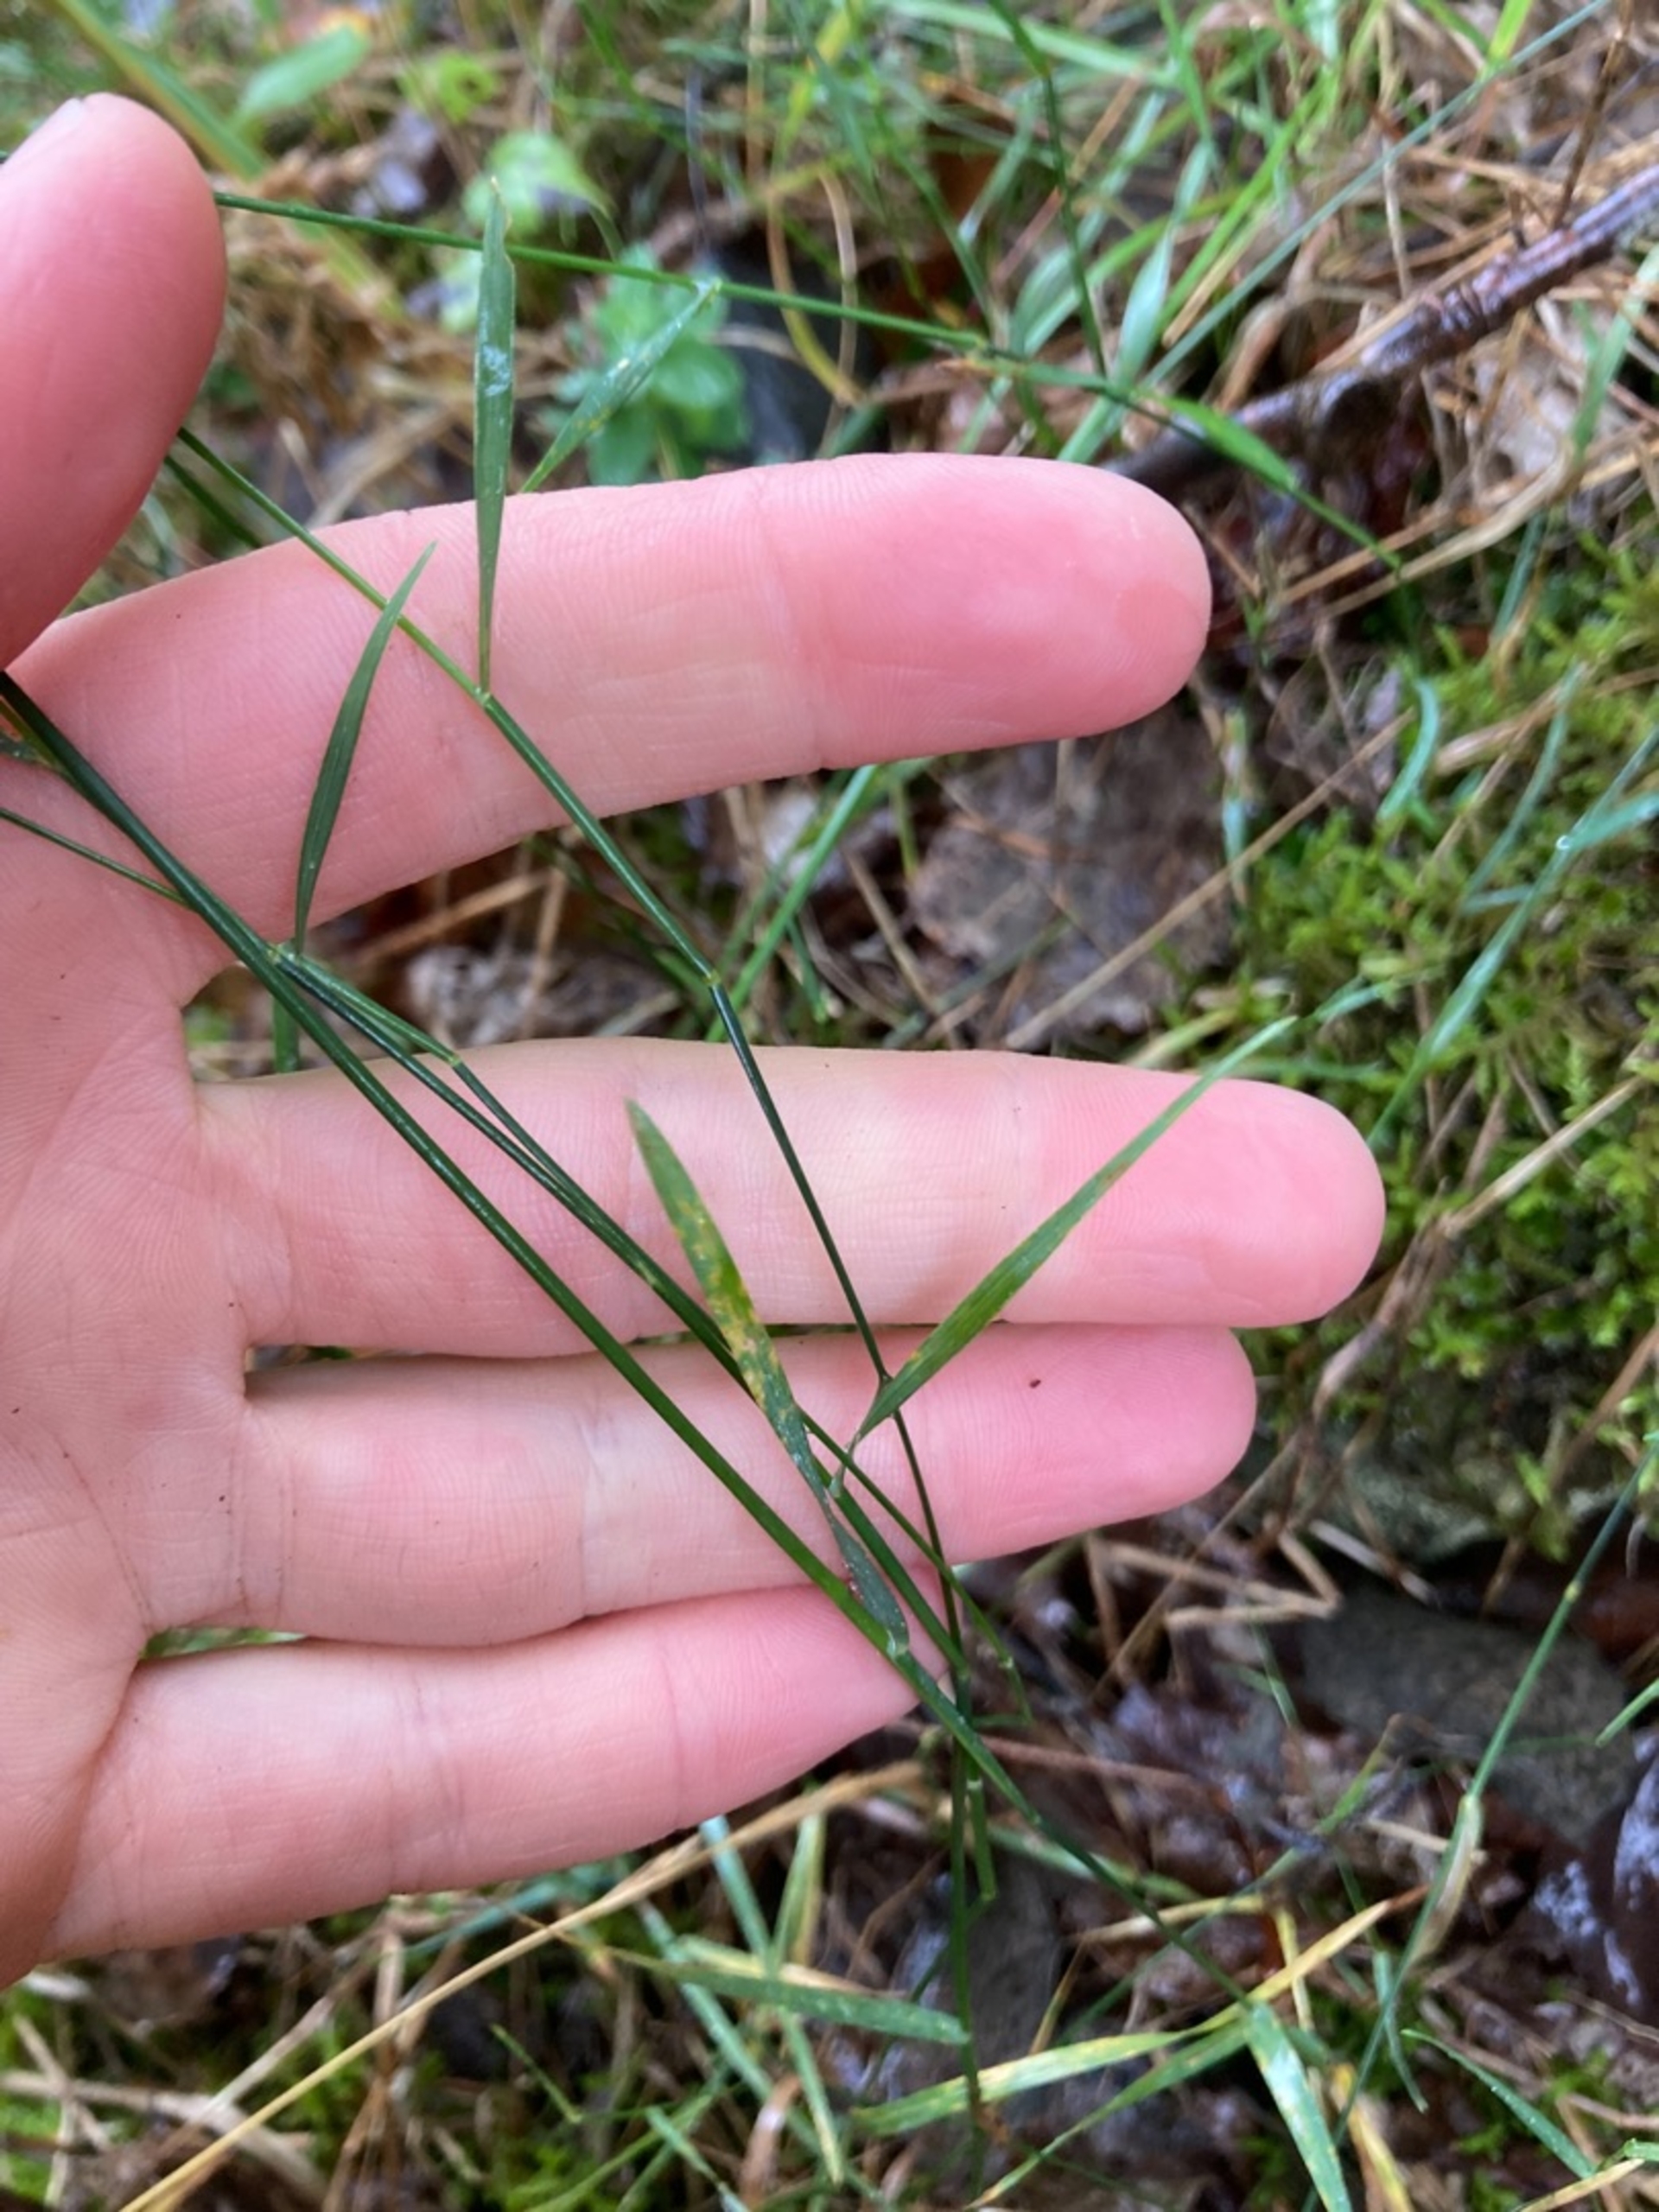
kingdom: Plantae
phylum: Tracheophyta
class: Liliopsida
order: Poales
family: Poaceae
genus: Poa
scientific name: Poa compressa
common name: Fladstrået rapgræs
